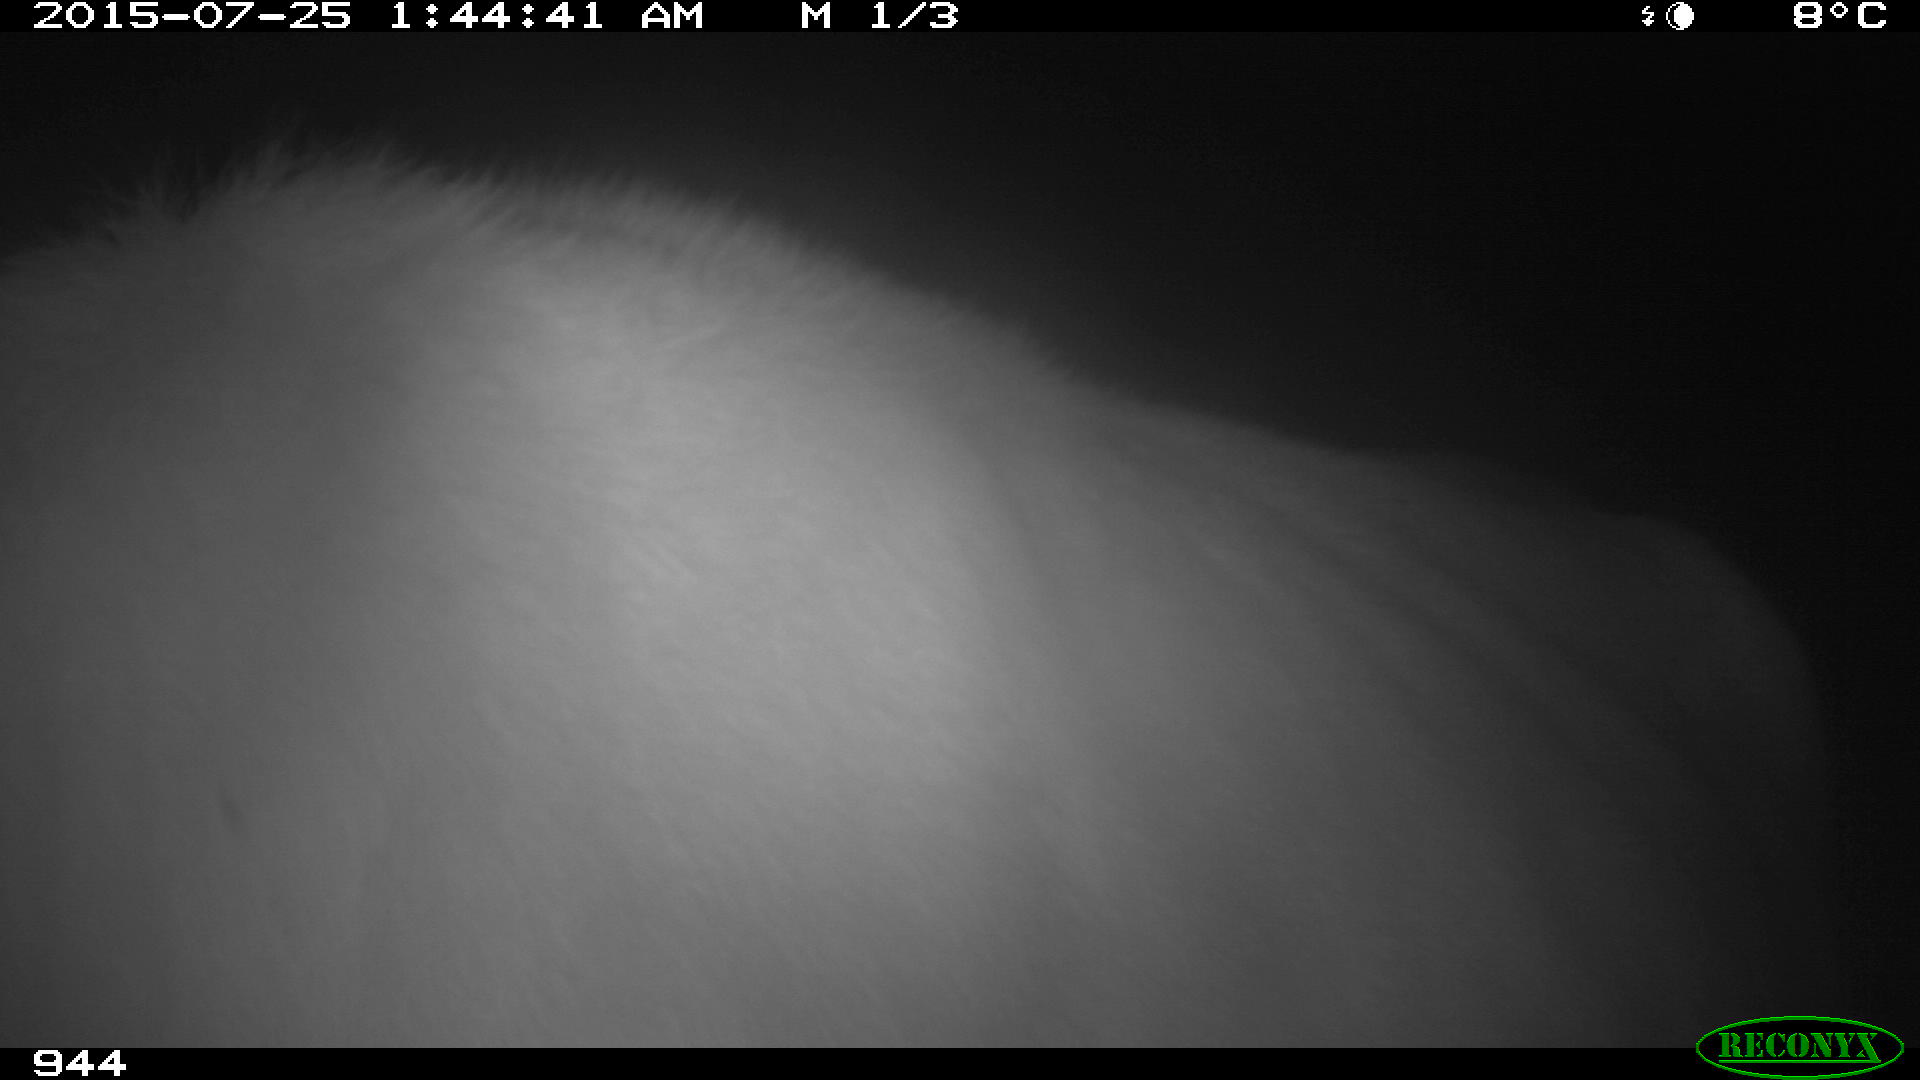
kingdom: Animalia
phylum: Chordata
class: Mammalia
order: Artiodactyla
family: Bovidae
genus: Bos
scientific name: Bos taurus
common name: Domesticated cattle
